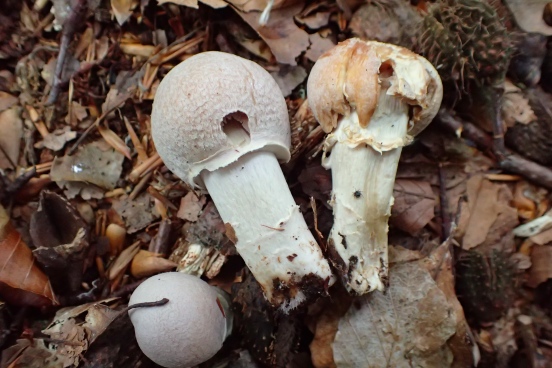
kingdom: Fungi
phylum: Basidiomycota
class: Agaricomycetes
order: Agaricales
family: Cortinariaceae
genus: Cortinarius
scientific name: Cortinarius caperatus
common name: klidhat
